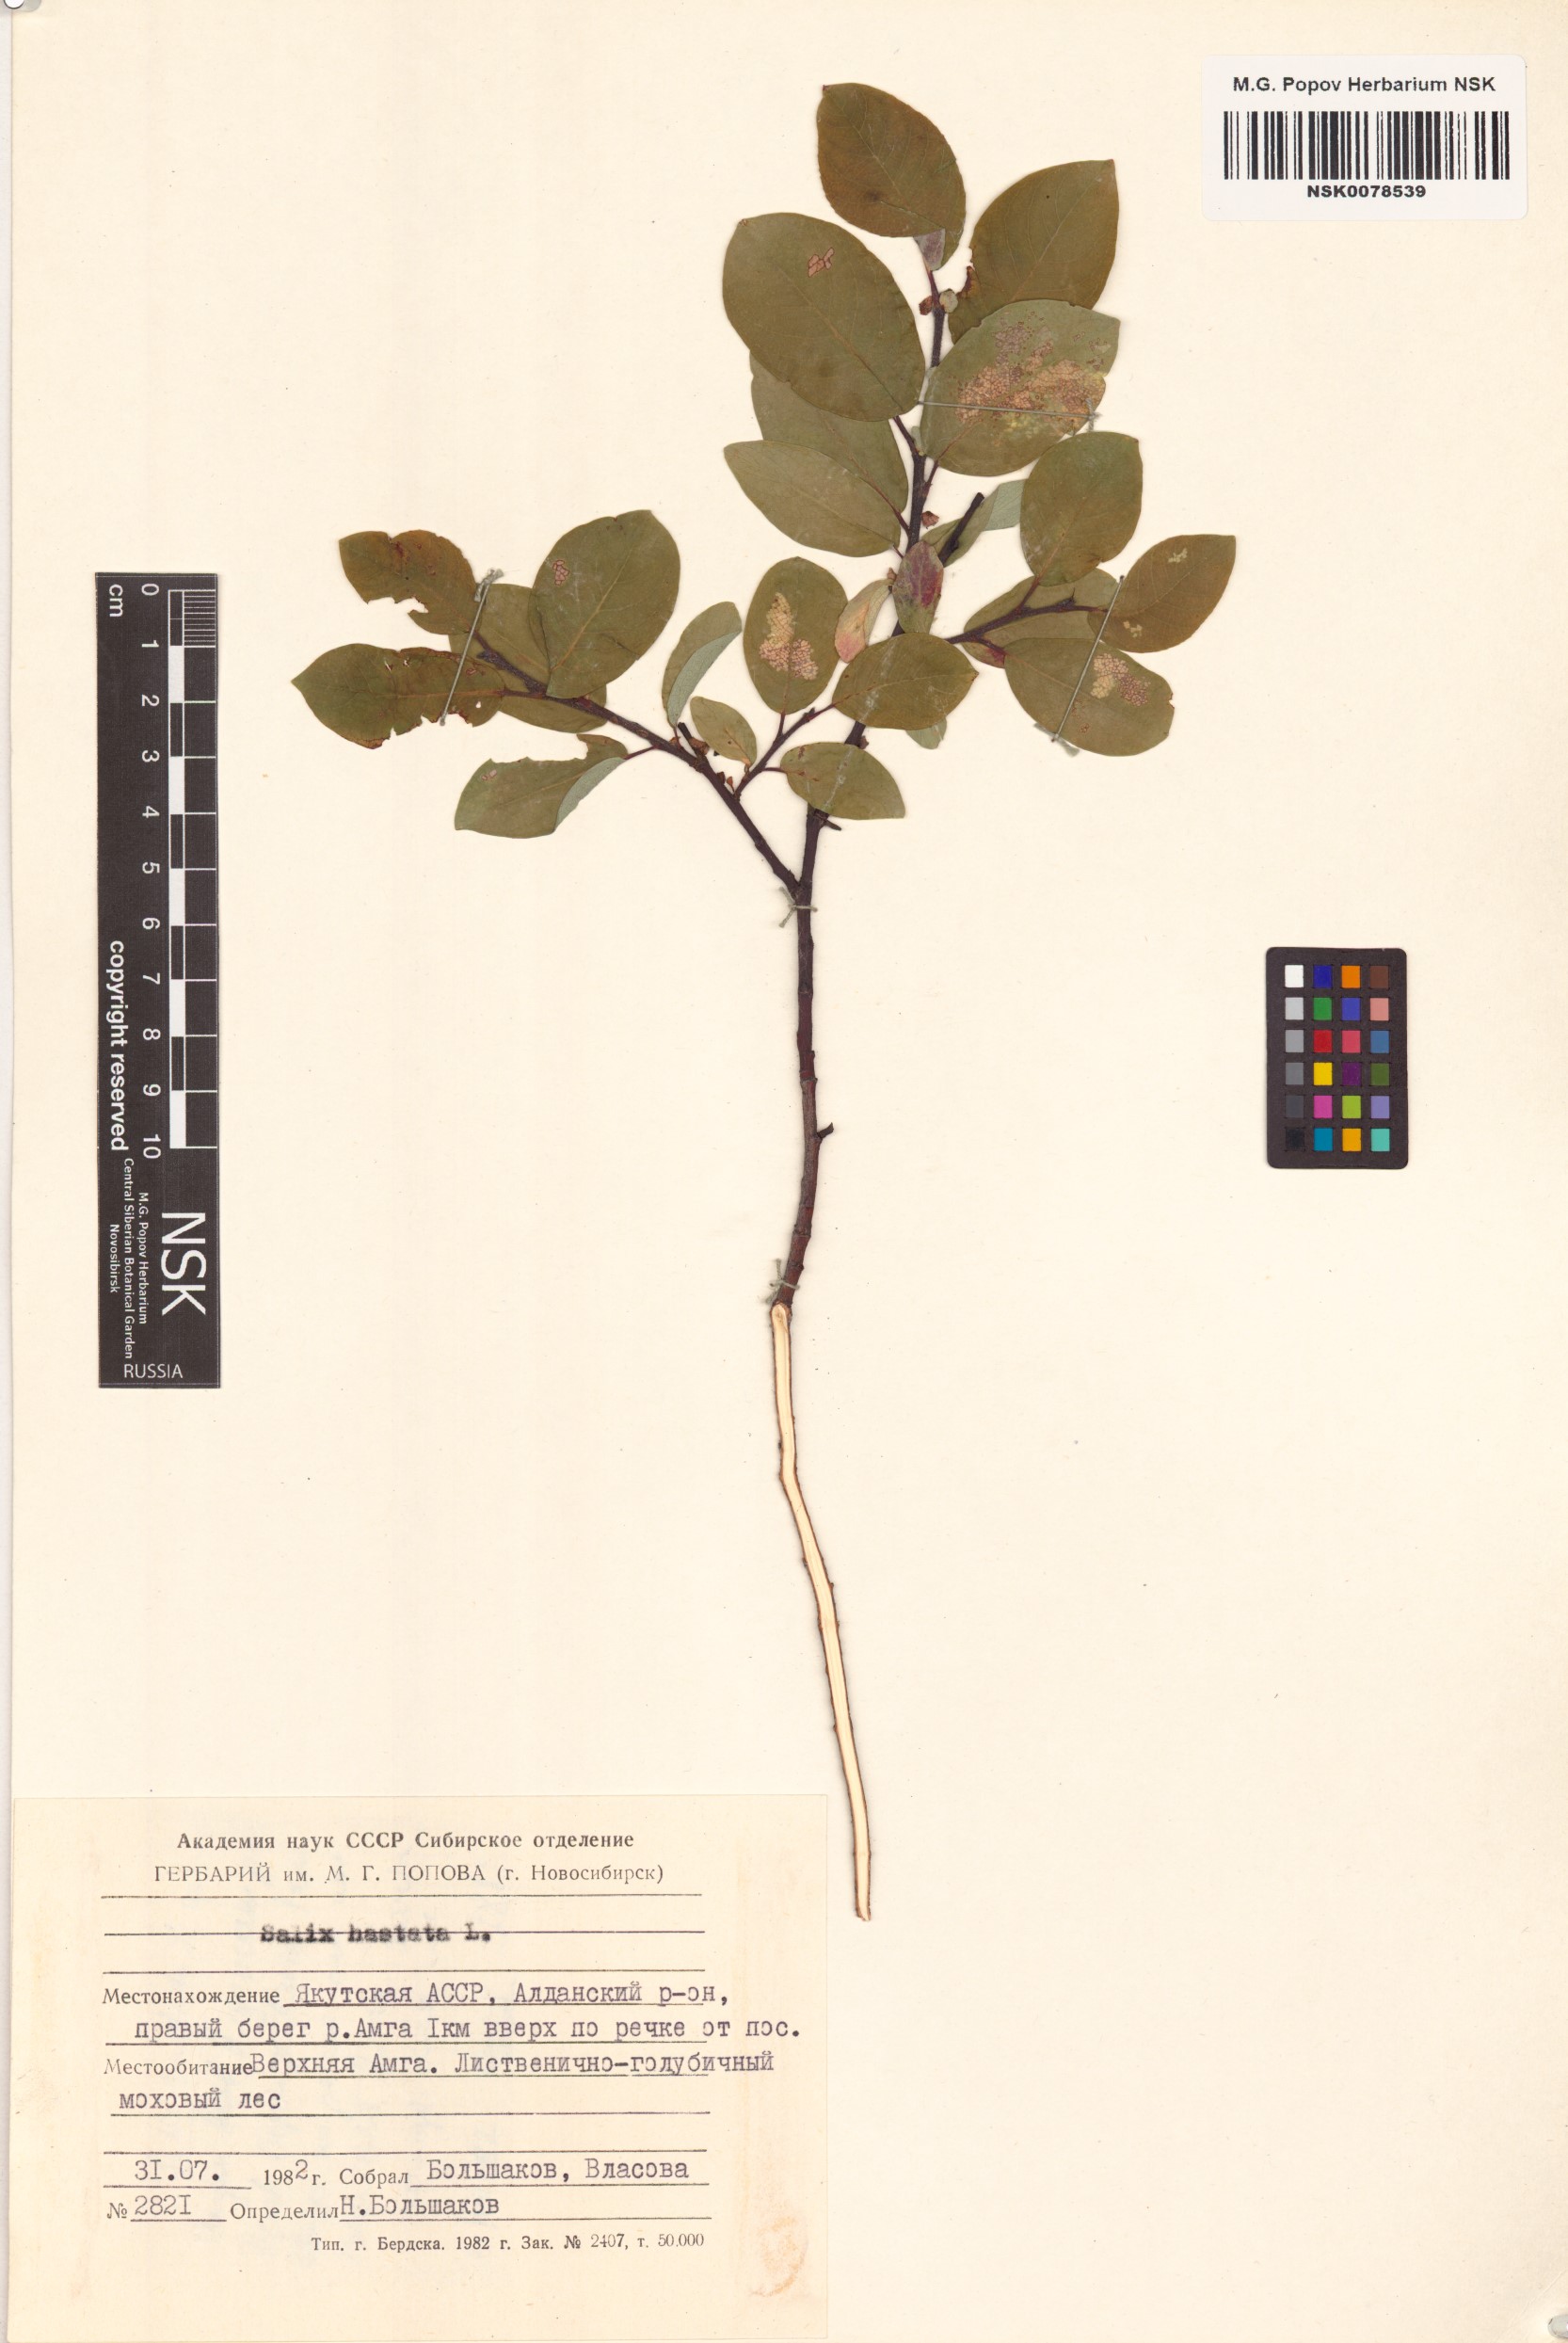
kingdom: Plantae
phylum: Tracheophyta
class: Magnoliopsida
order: Malpighiales
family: Salicaceae
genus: Salix
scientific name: Salix hastata
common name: Halberd willow
